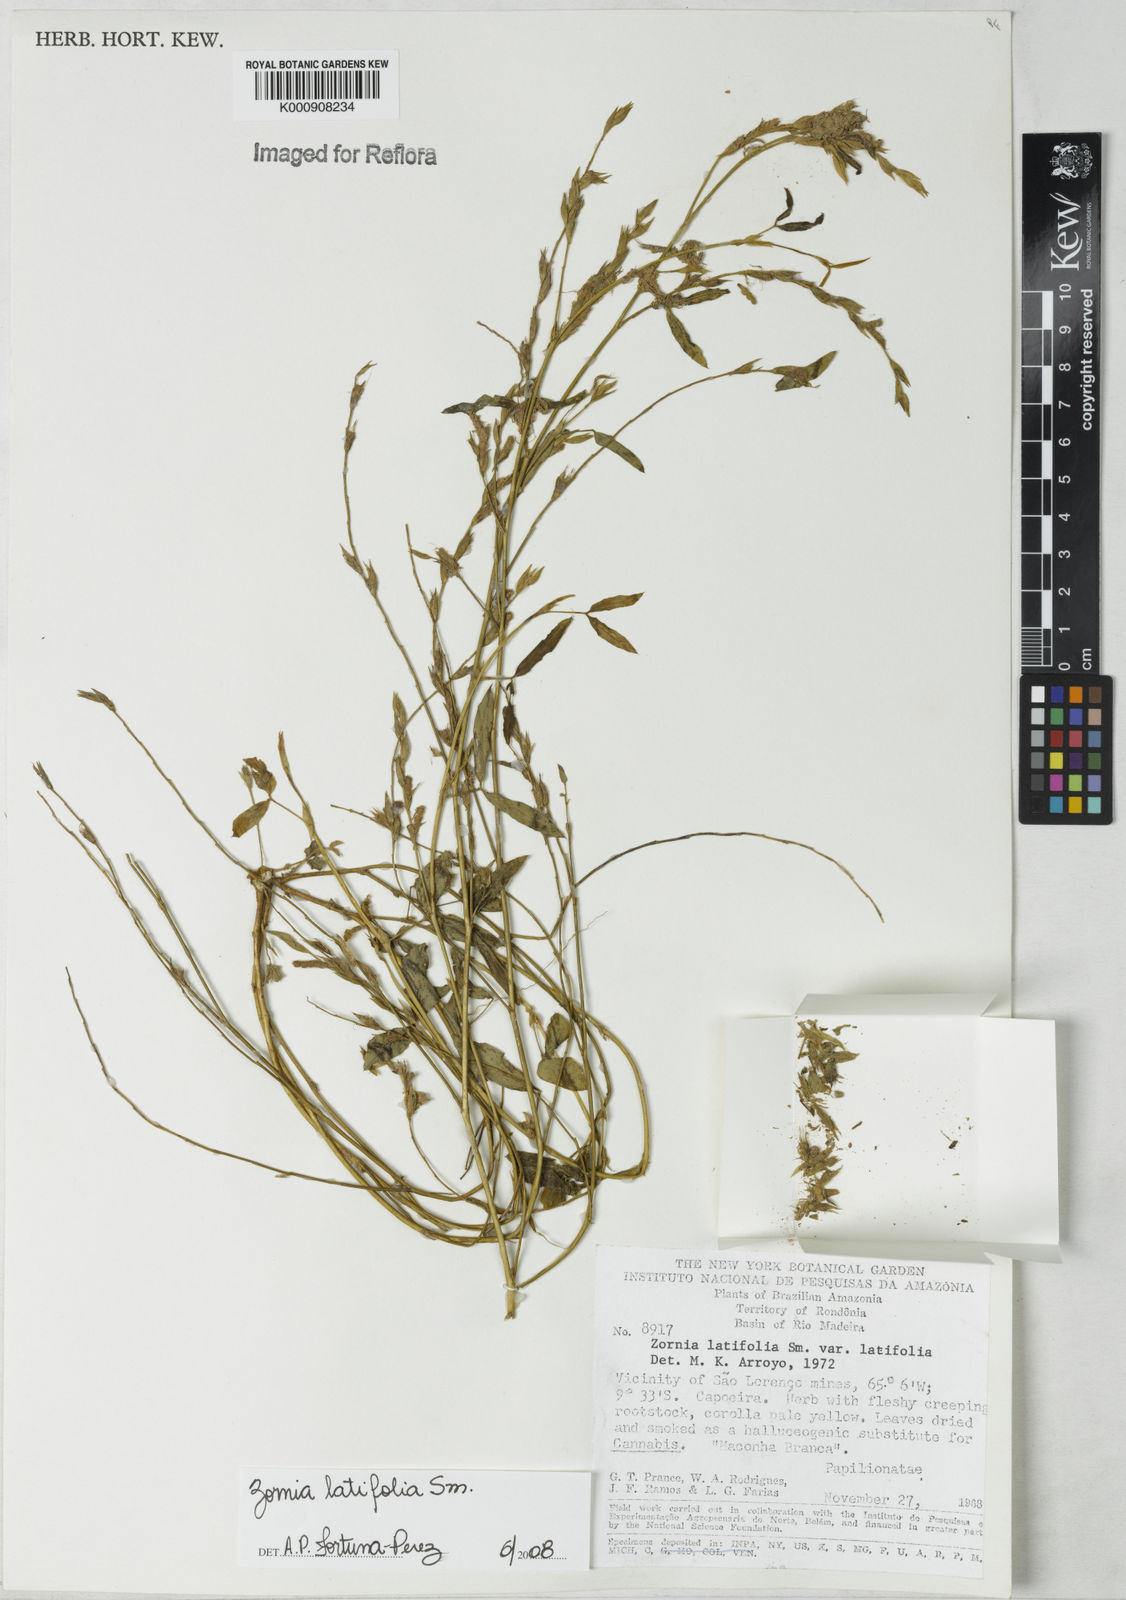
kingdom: Plantae
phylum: Tracheophyta
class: Magnoliopsida
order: Fabales
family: Fabaceae
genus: Zornia
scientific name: Zornia latifolia
